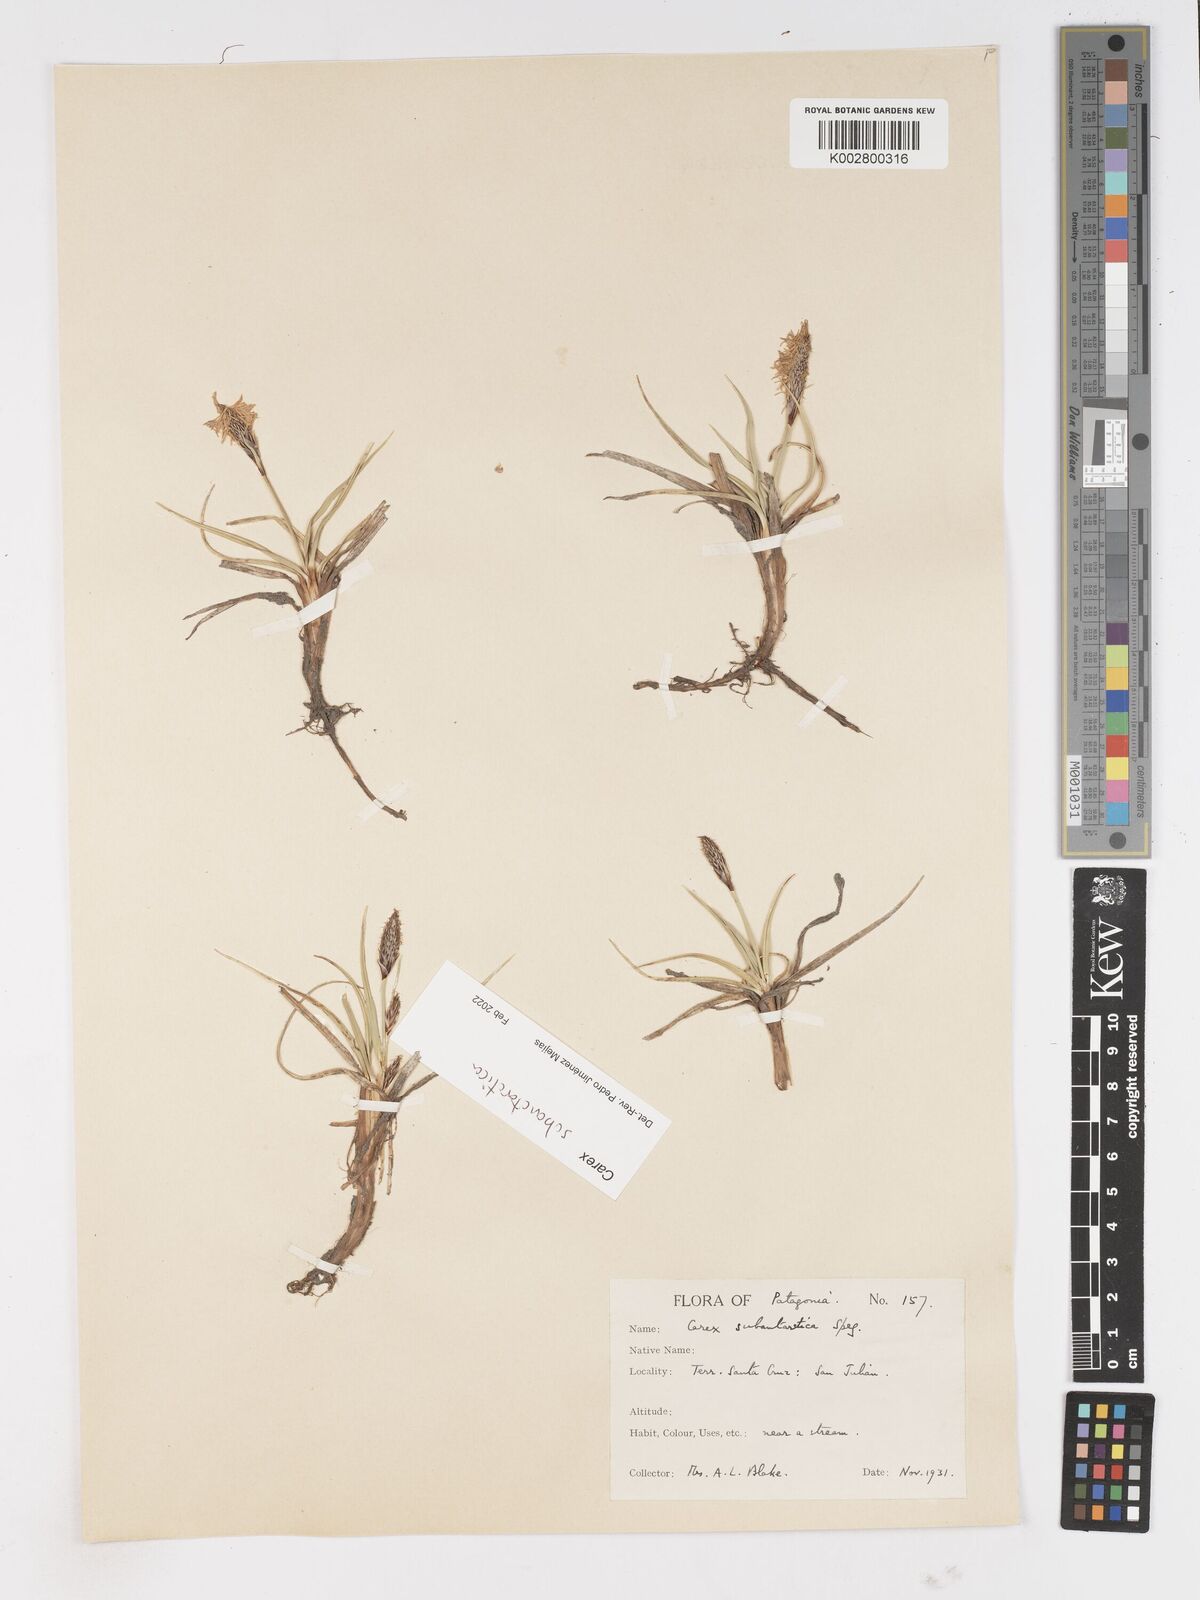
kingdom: Plantae
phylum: Tracheophyta
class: Liliopsida
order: Poales
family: Cyperaceae
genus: Carex
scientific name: Carex subantarctica
